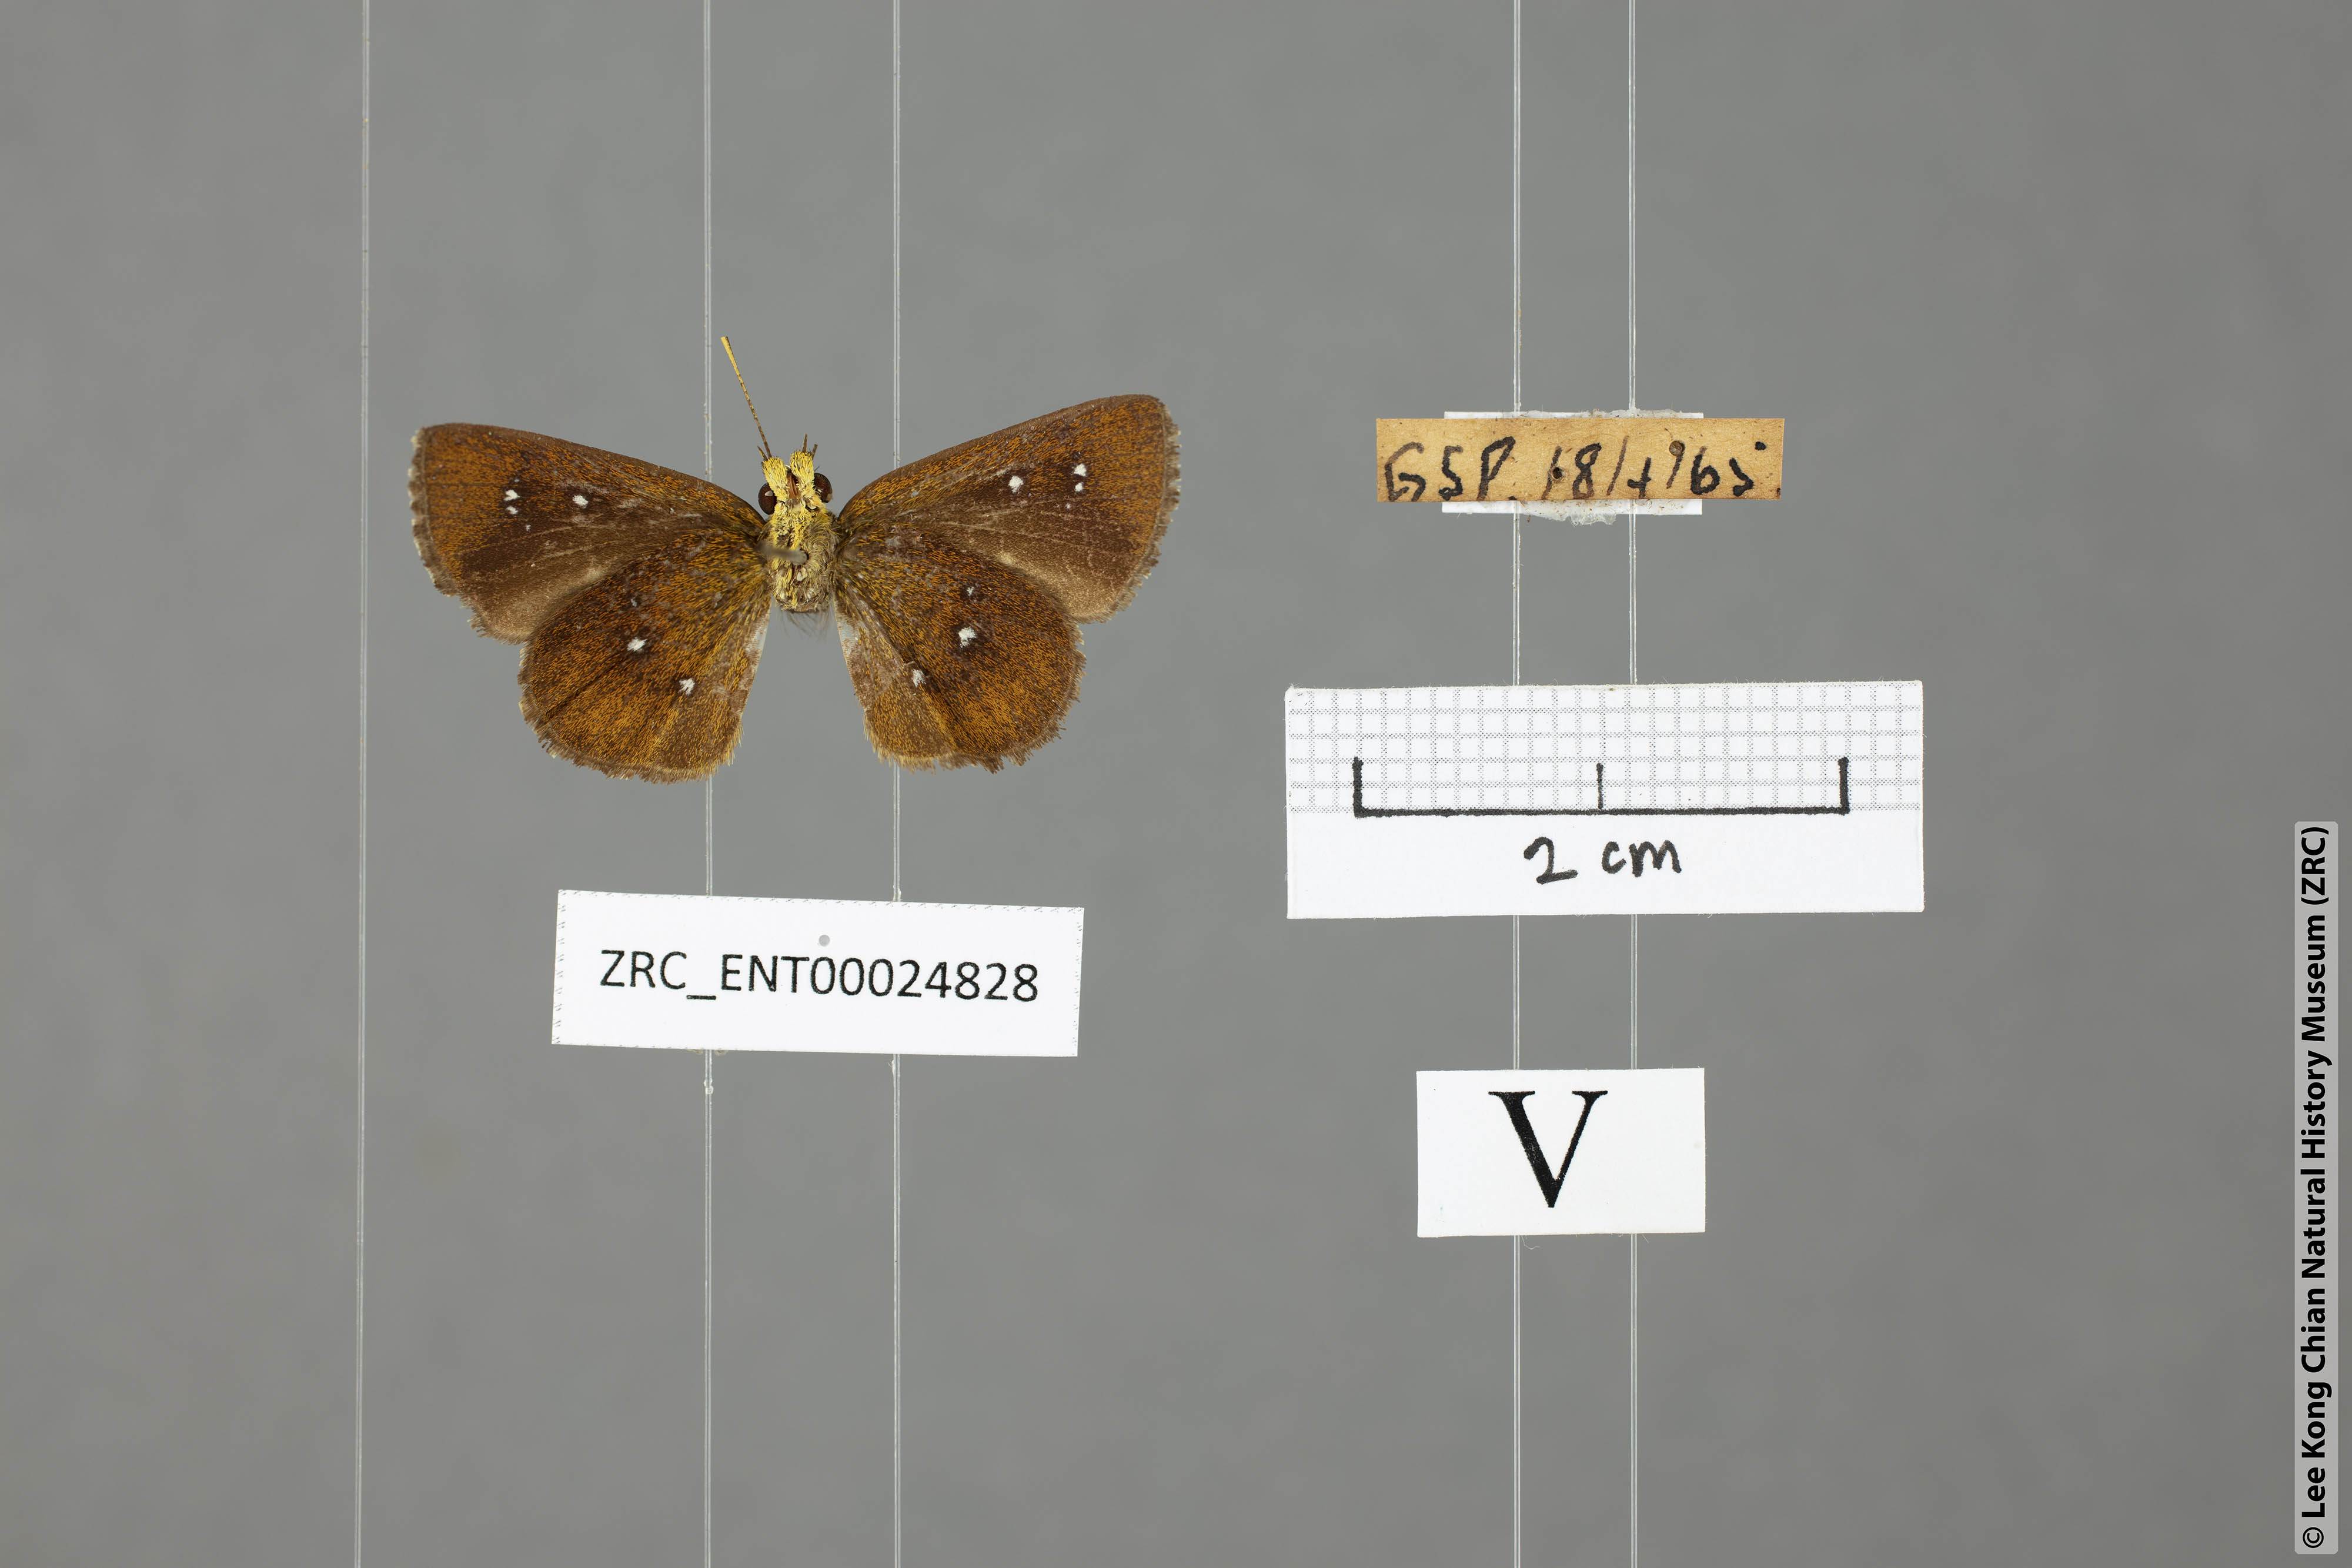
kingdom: Animalia
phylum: Arthropoda
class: Insecta
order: Lepidoptera
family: Hesperiidae
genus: Iambrix
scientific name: Iambrix stellifer
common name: Starry bob
